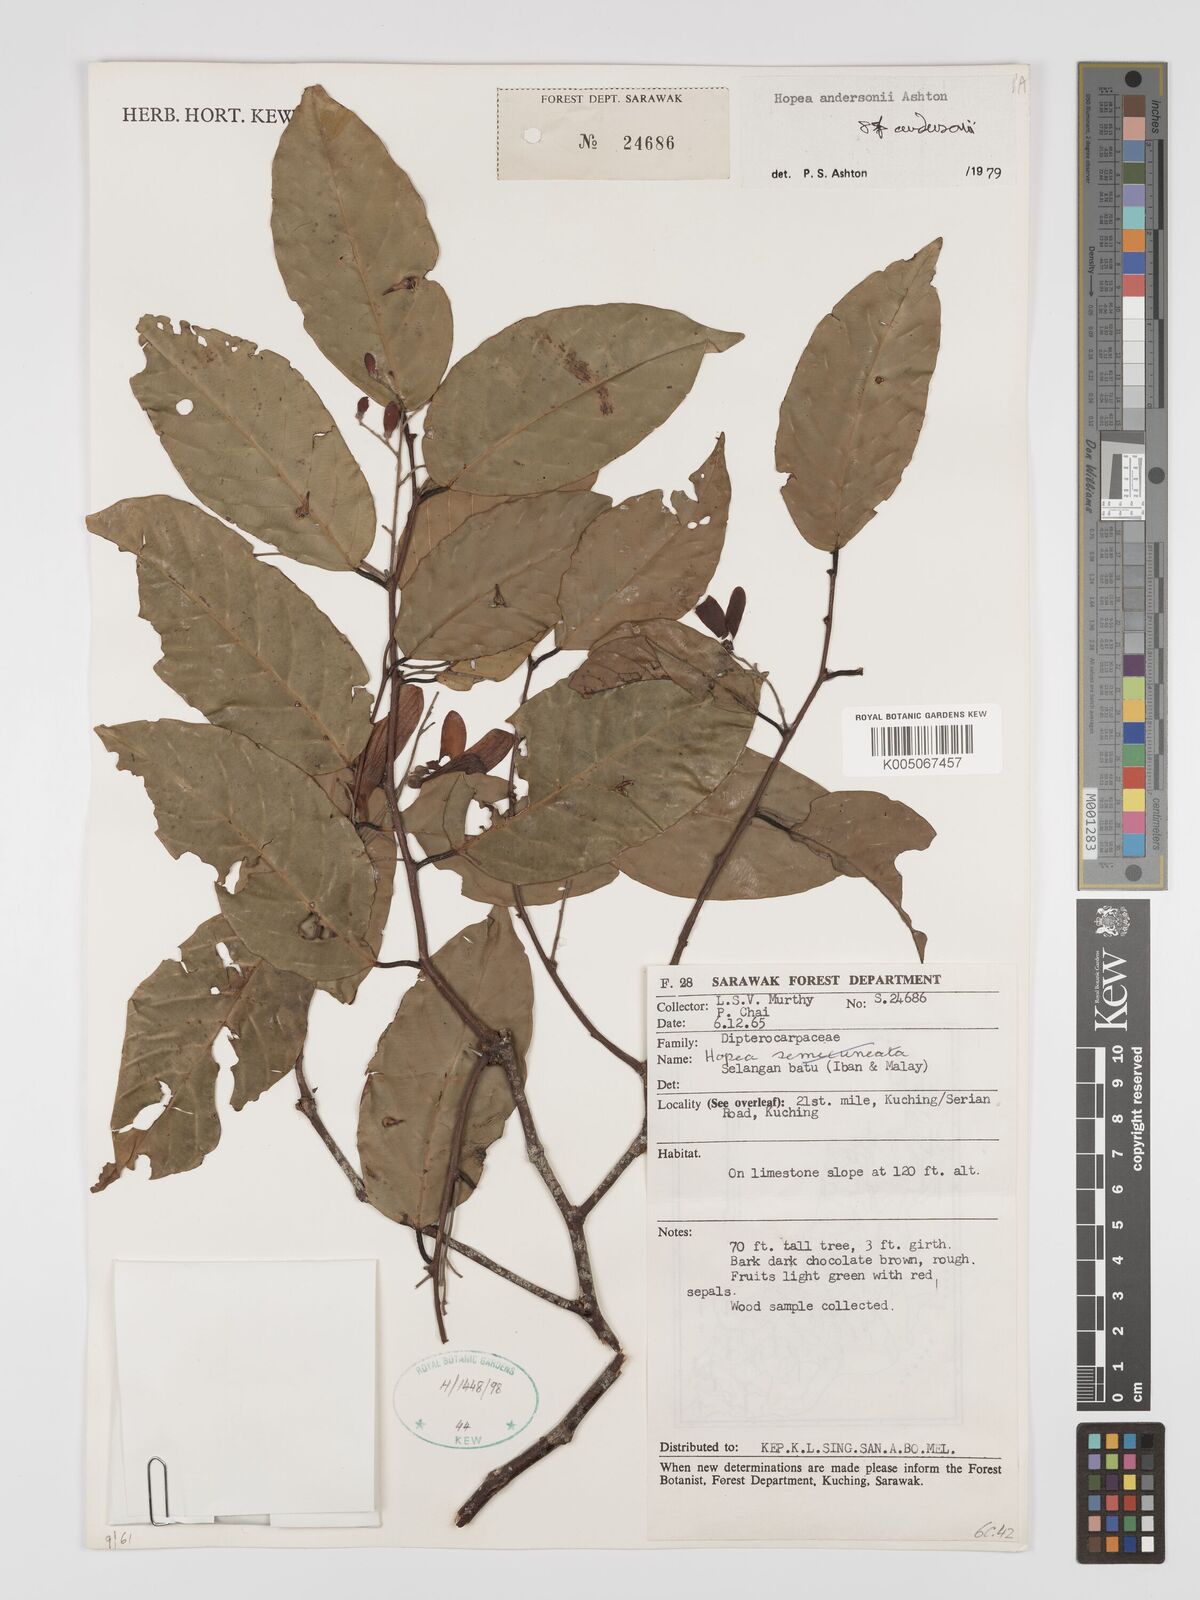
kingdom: Plantae
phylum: Tracheophyta
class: Magnoliopsida
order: Malvales
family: Dipterocarpaceae
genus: Hopea
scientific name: Hopea andersonii
